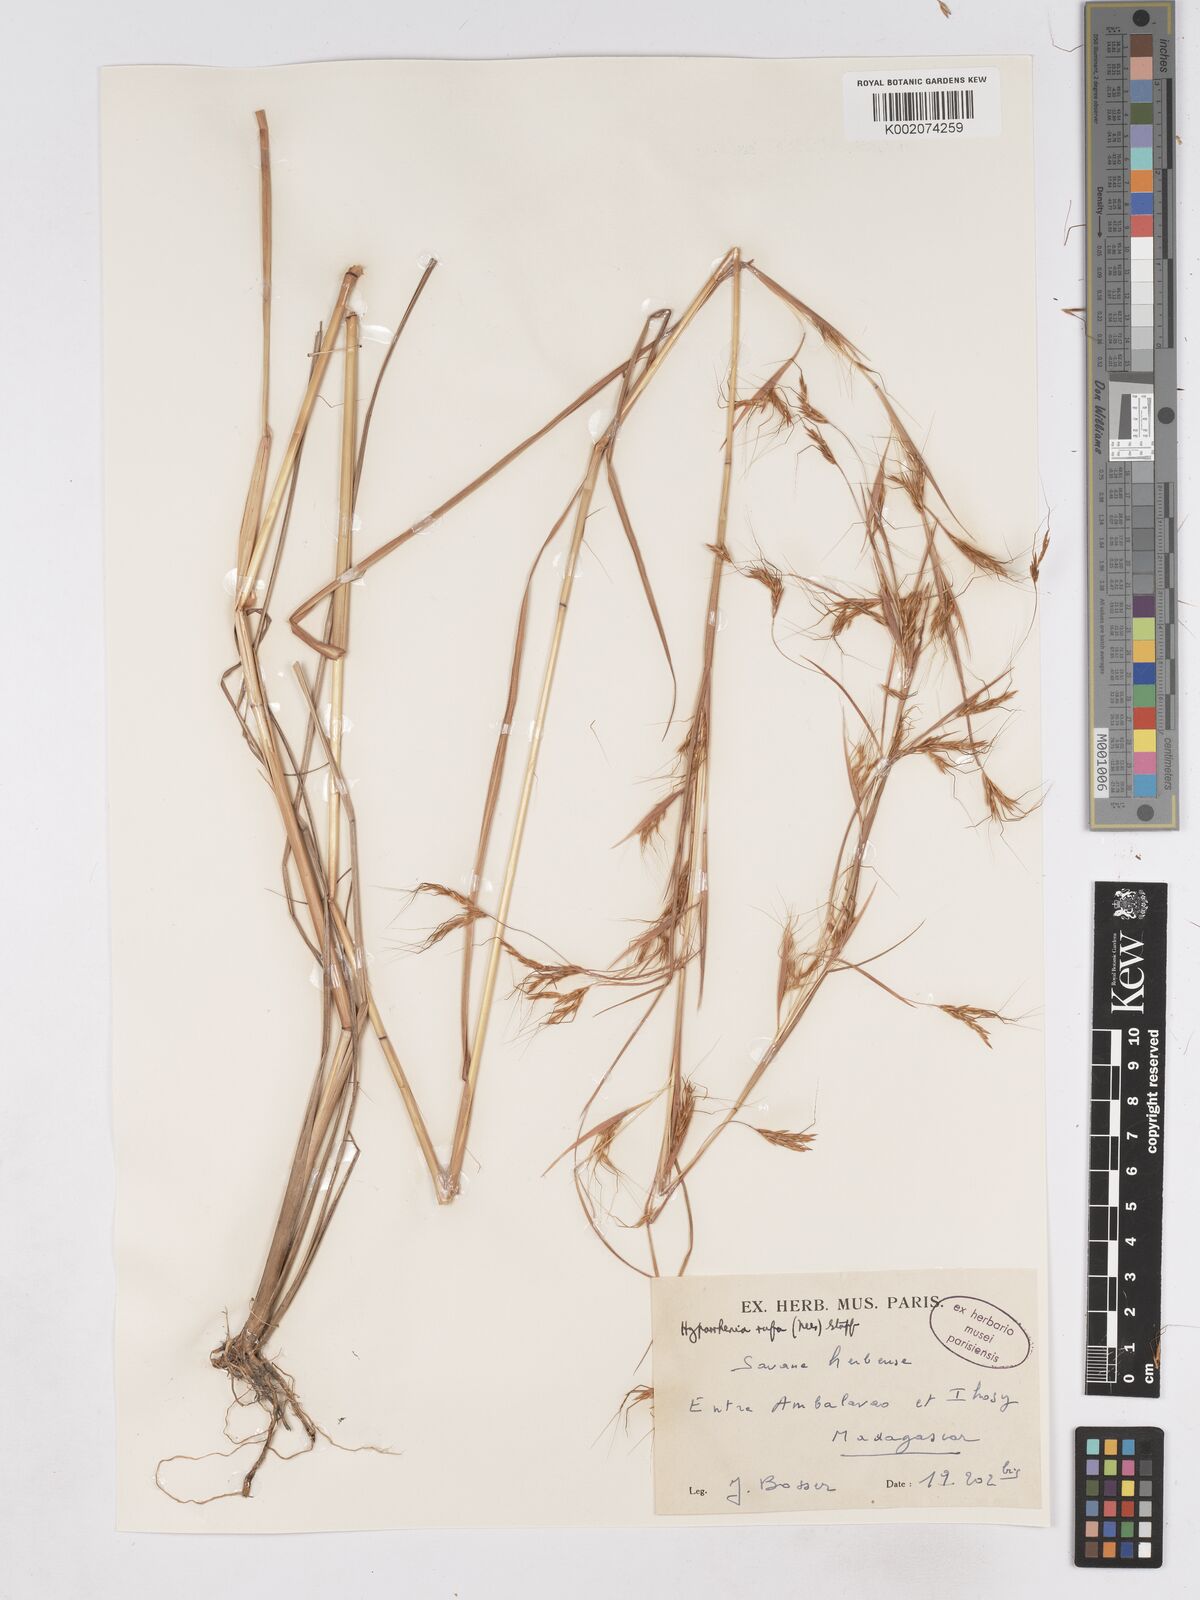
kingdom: Plantae
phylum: Tracheophyta
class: Liliopsida
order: Poales
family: Poaceae
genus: Hyparrhenia
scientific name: Hyparrhenia rufa
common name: Jaraguagrass
